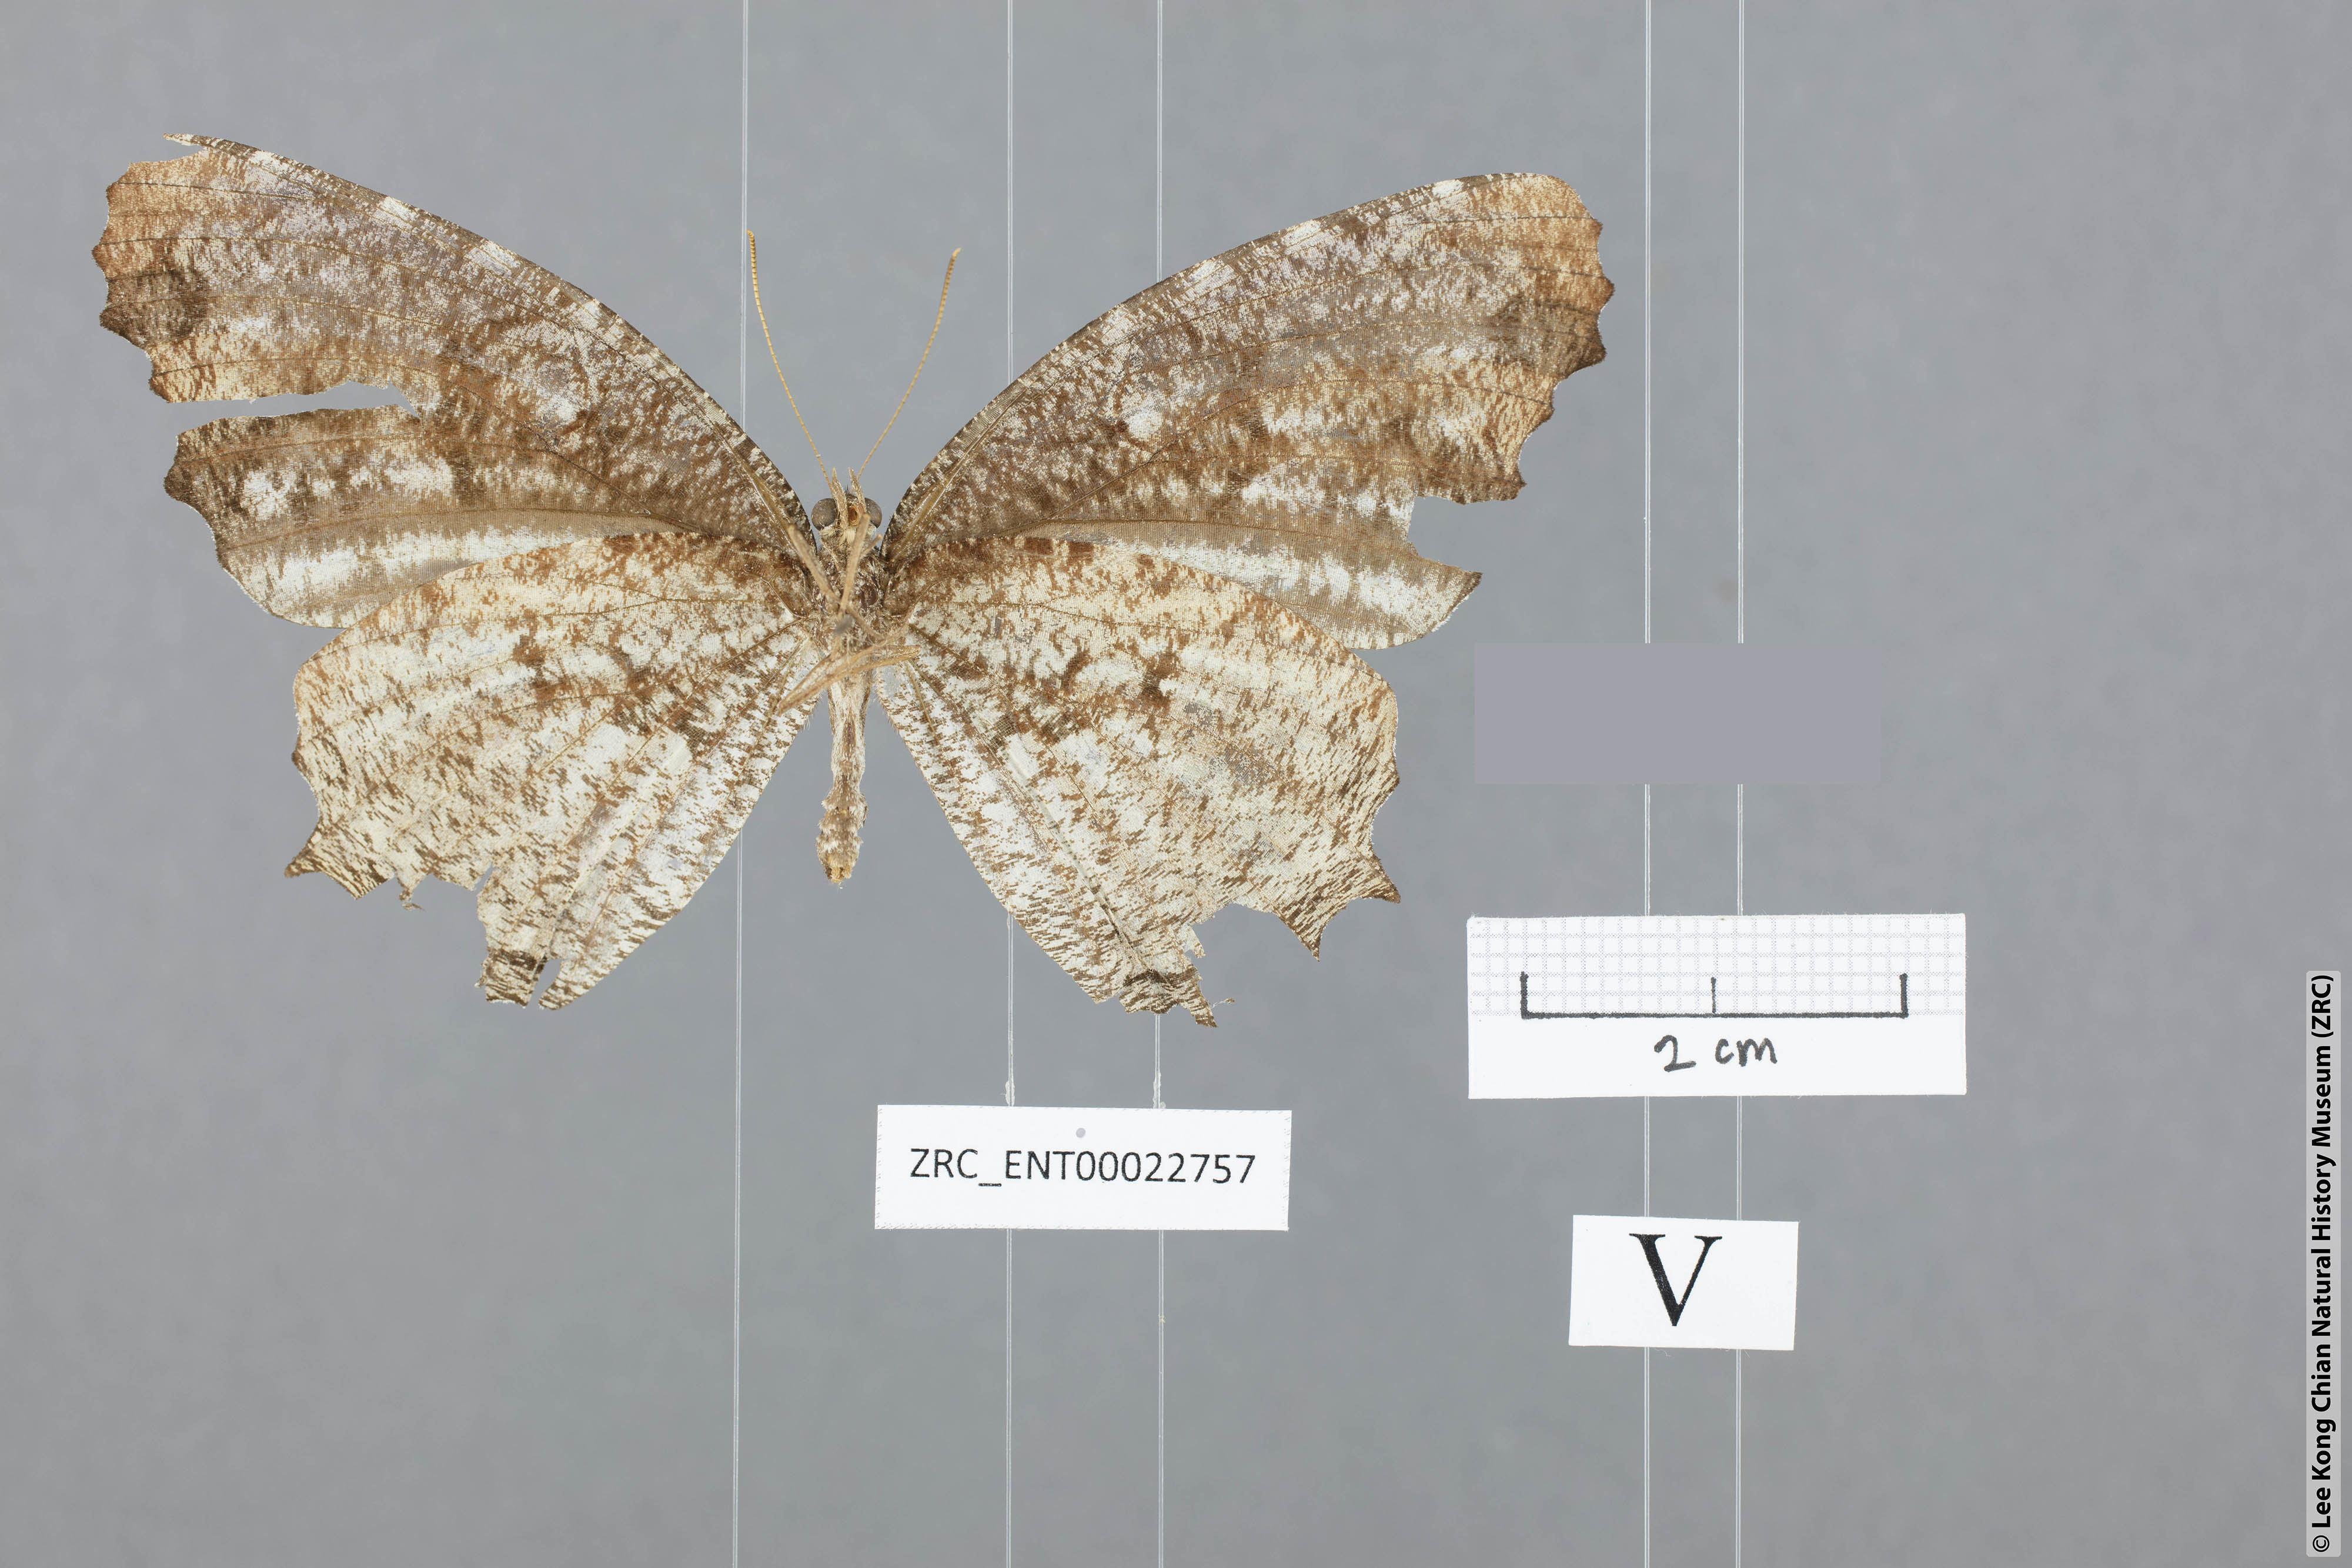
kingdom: Animalia
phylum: Arthropoda
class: Insecta
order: Lepidoptera
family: Nymphalidae
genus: Elymnias
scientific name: Elymnias nesaea
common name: Tiger palmfly
